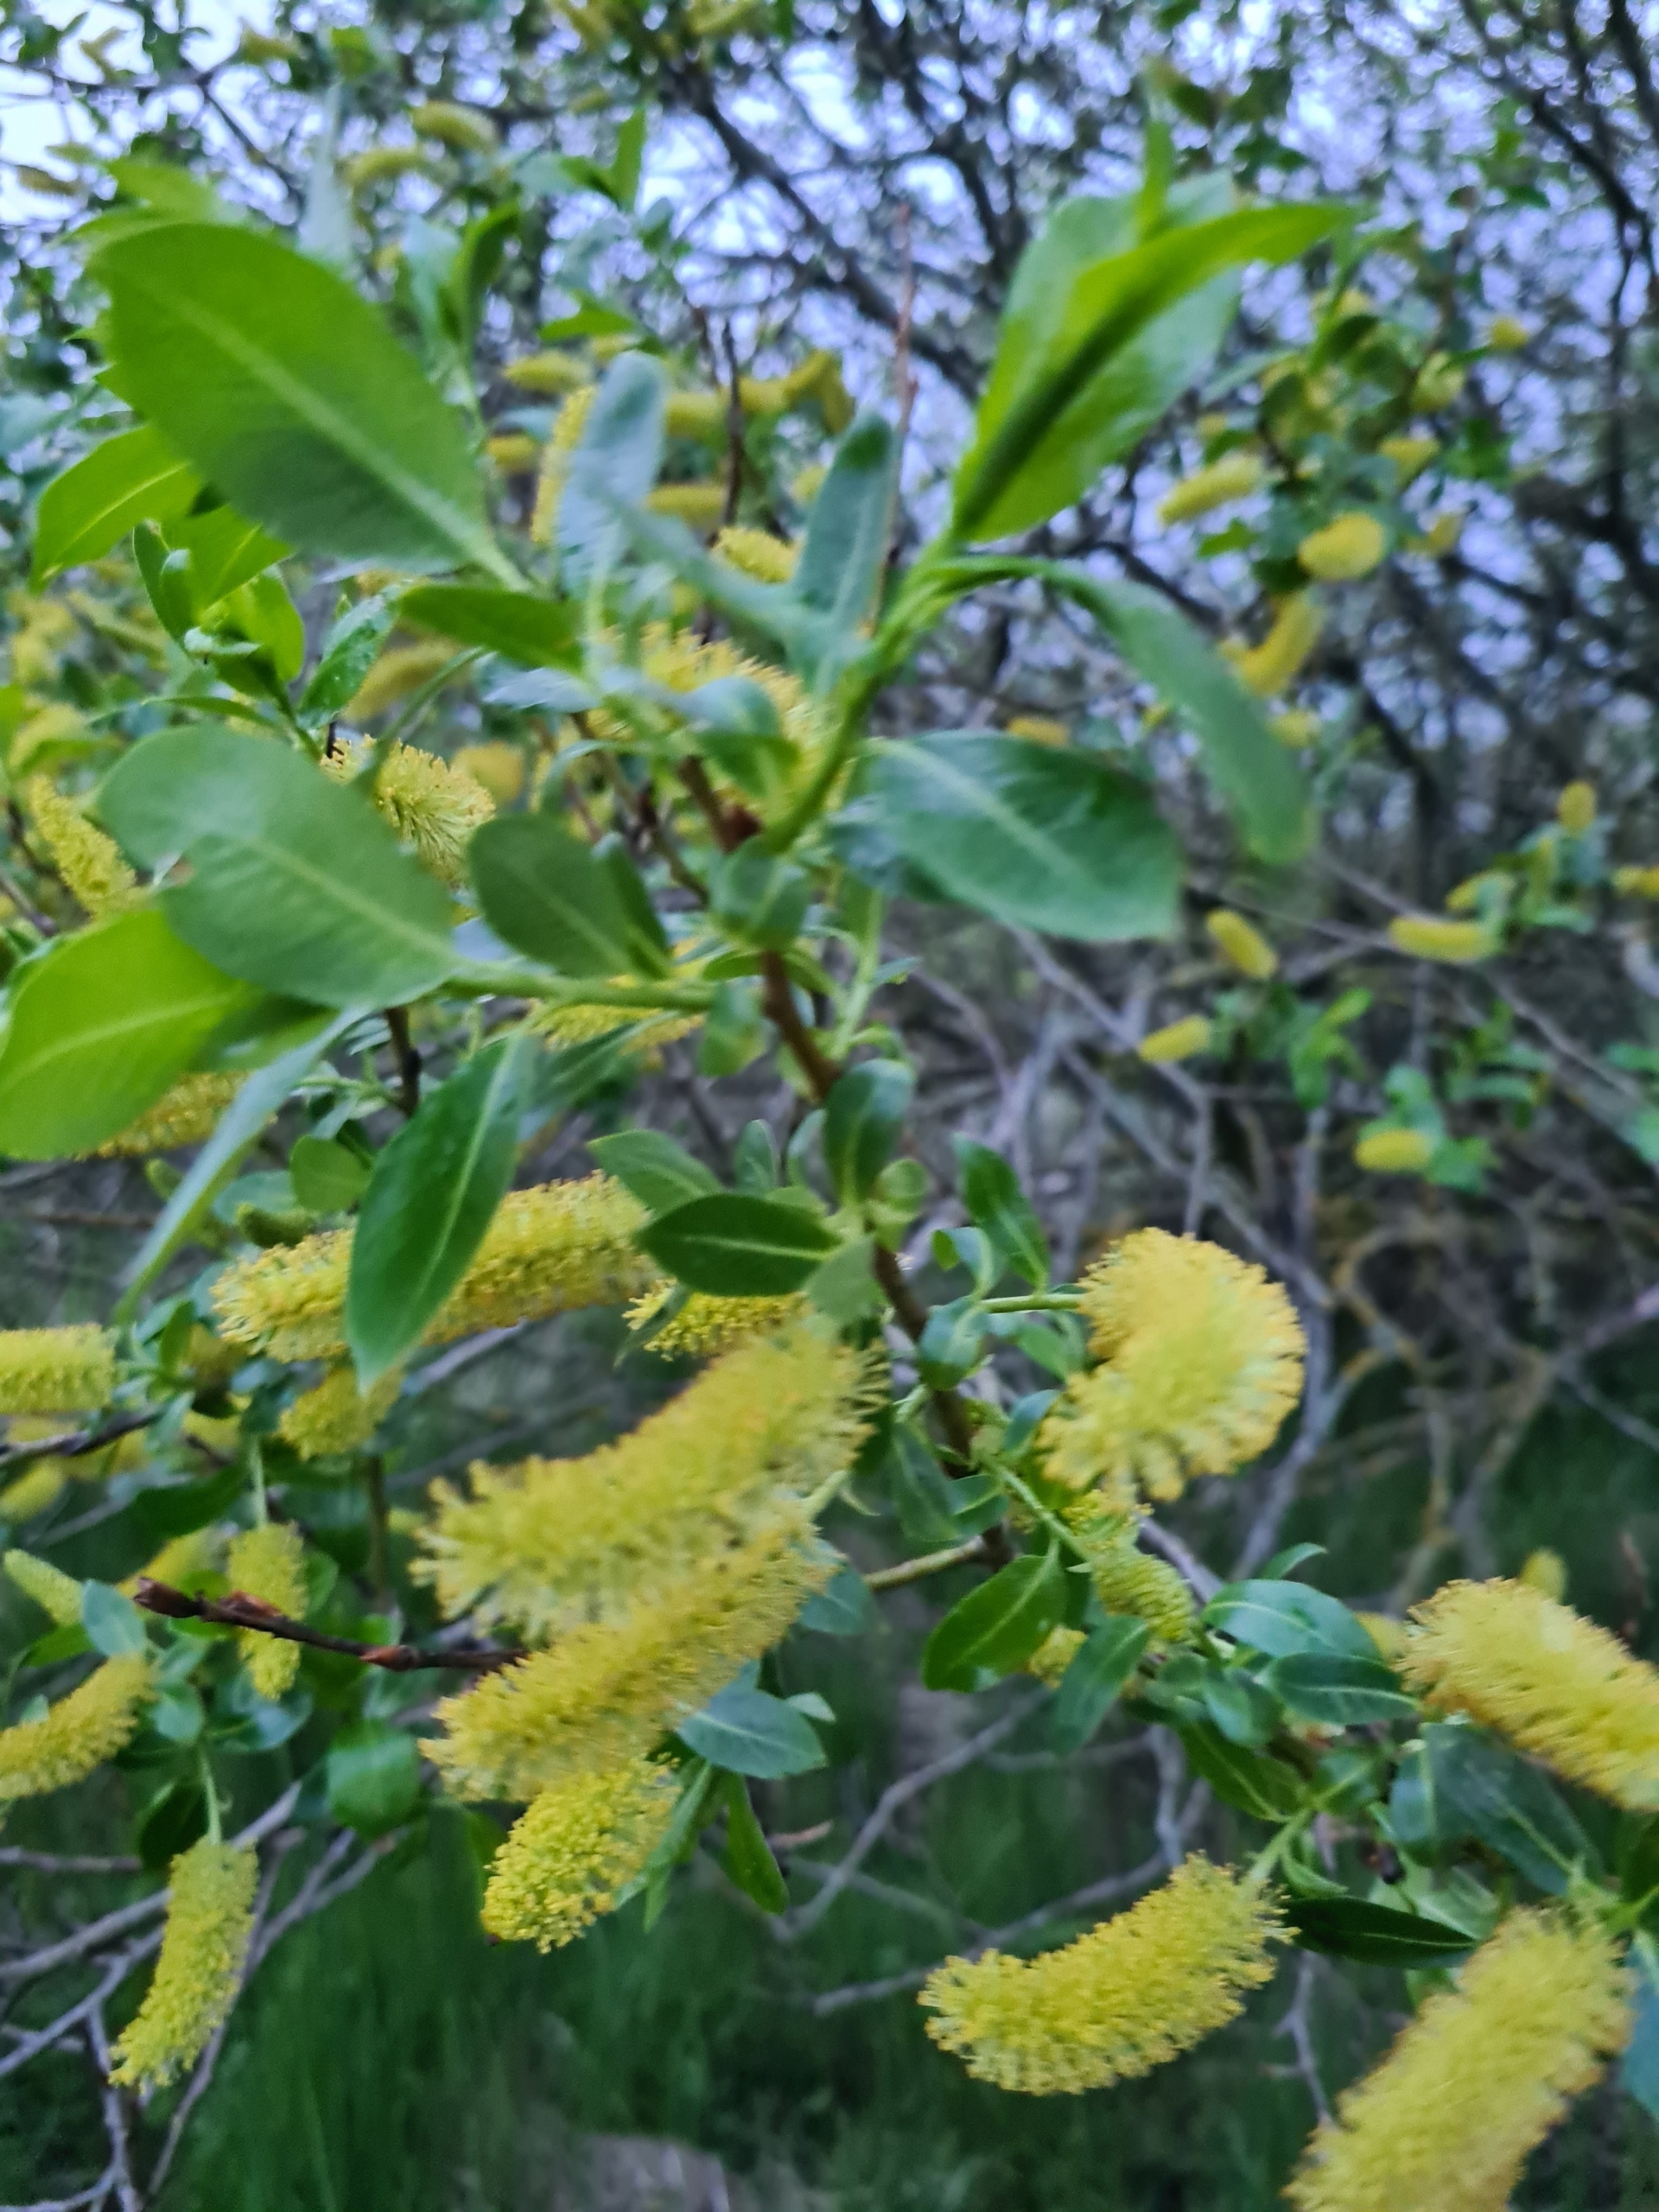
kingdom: Plantae
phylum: Tracheophyta
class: Magnoliopsida
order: Malpighiales
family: Salicaceae
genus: Salix
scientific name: Salix pentandra
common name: Femhannet pil
